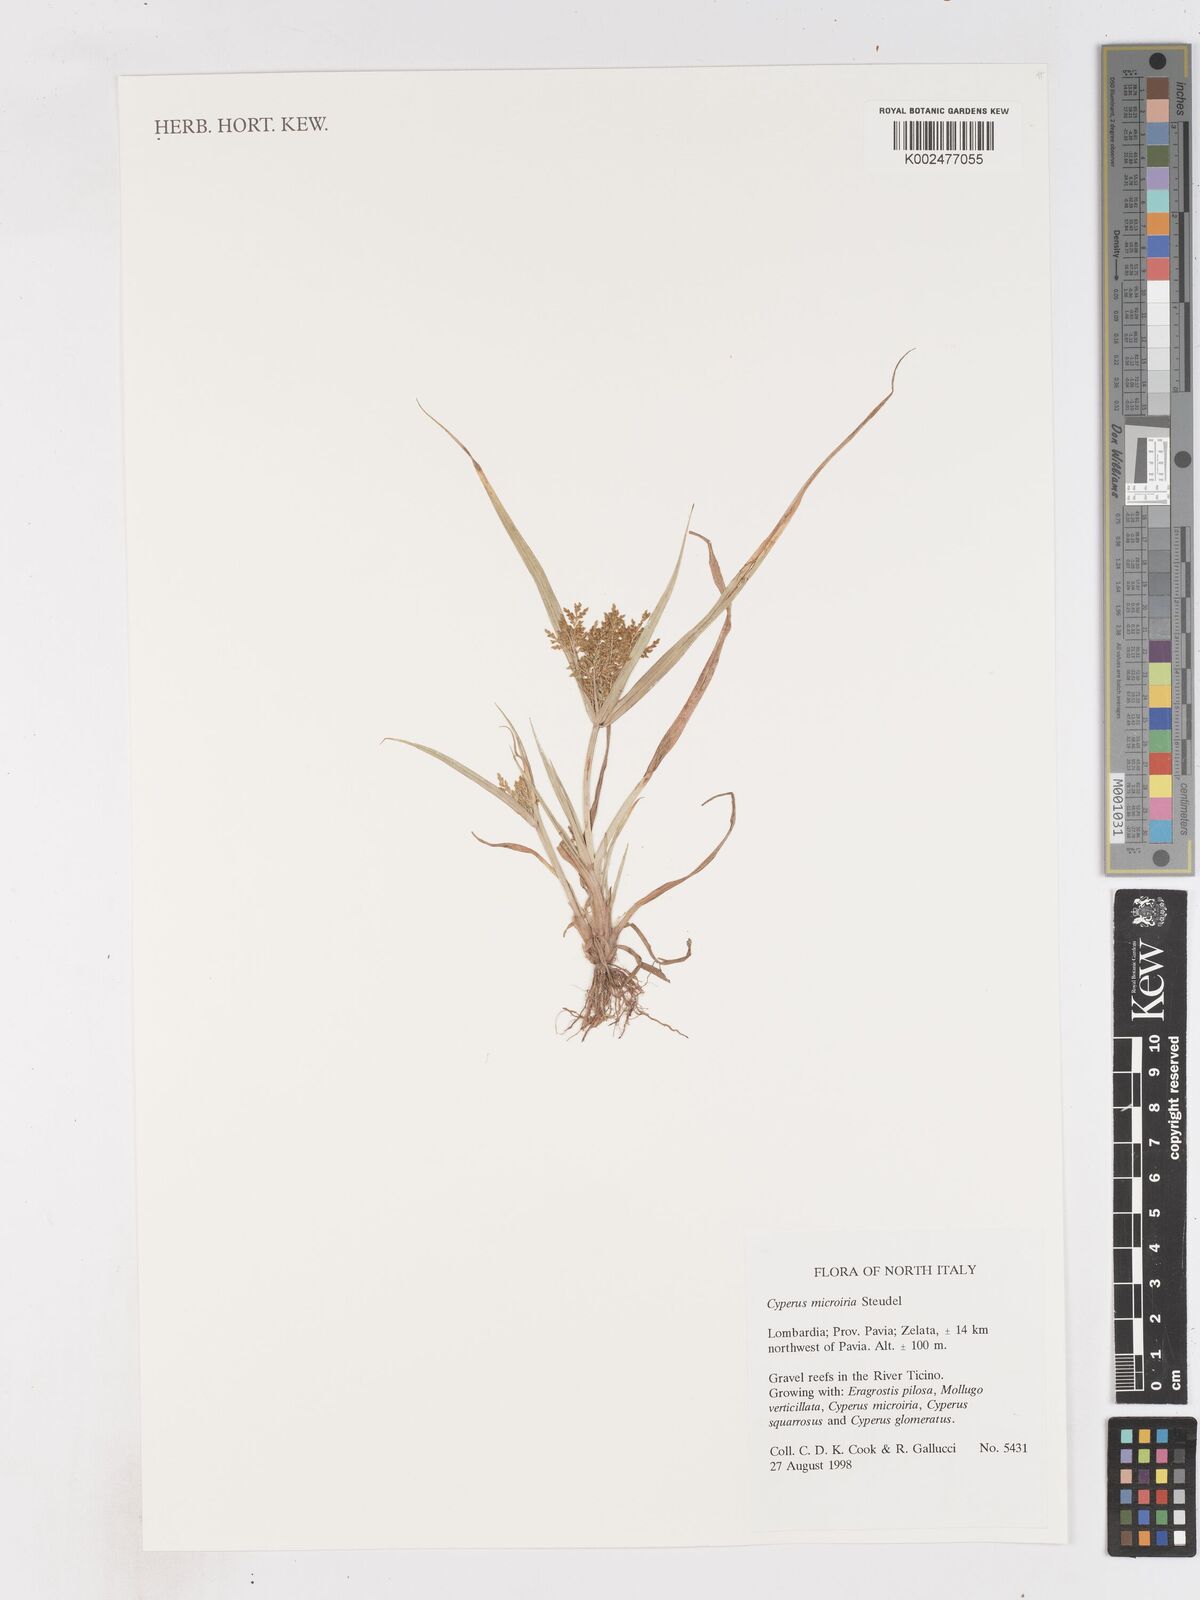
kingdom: Plantae
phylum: Tracheophyta
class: Liliopsida
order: Poales
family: Cyperaceae
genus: Cyperus
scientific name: Cyperus microiria
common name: Asian flatsedge
